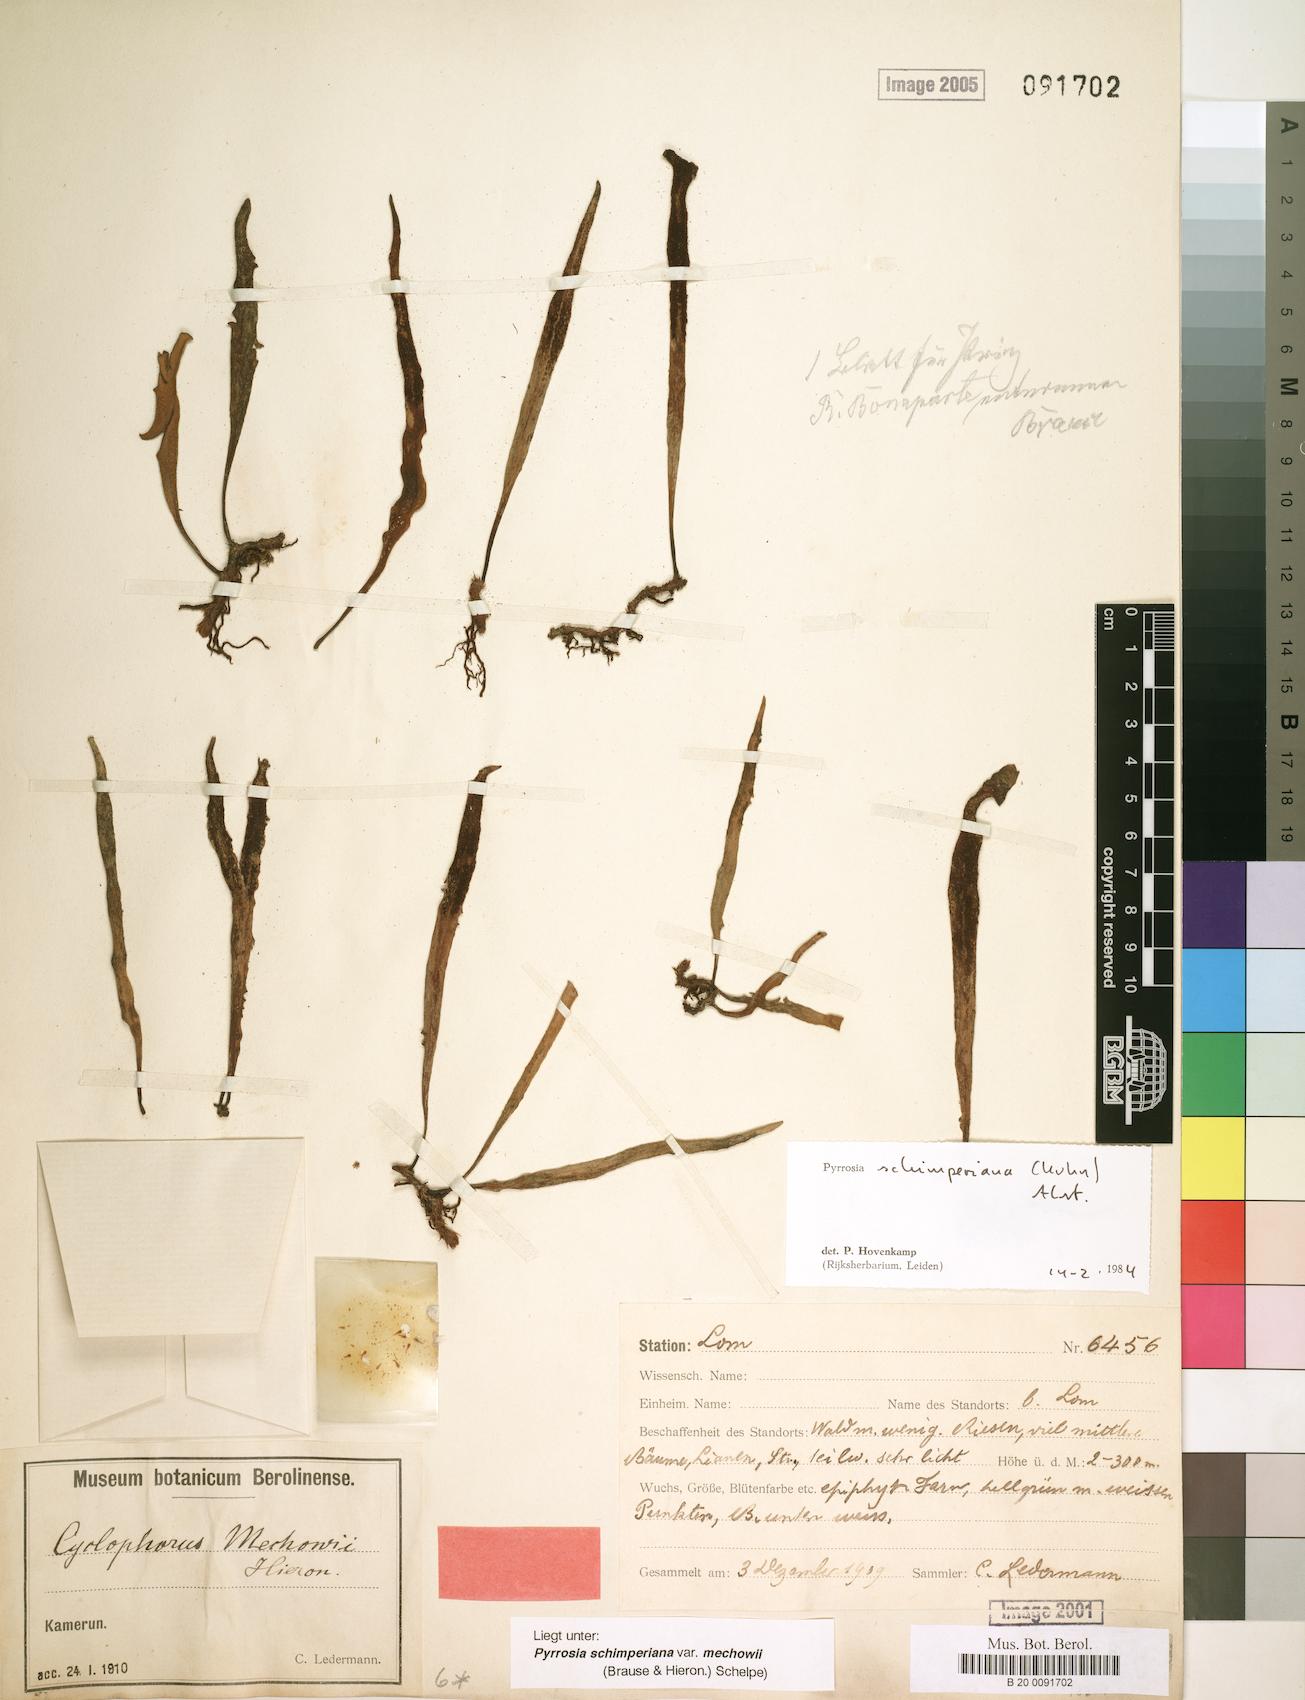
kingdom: Plantae
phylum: Tracheophyta
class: Polypodiopsida
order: Polypodiales
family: Polypodiaceae
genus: Hovenkampia
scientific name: Hovenkampia schimperiana
